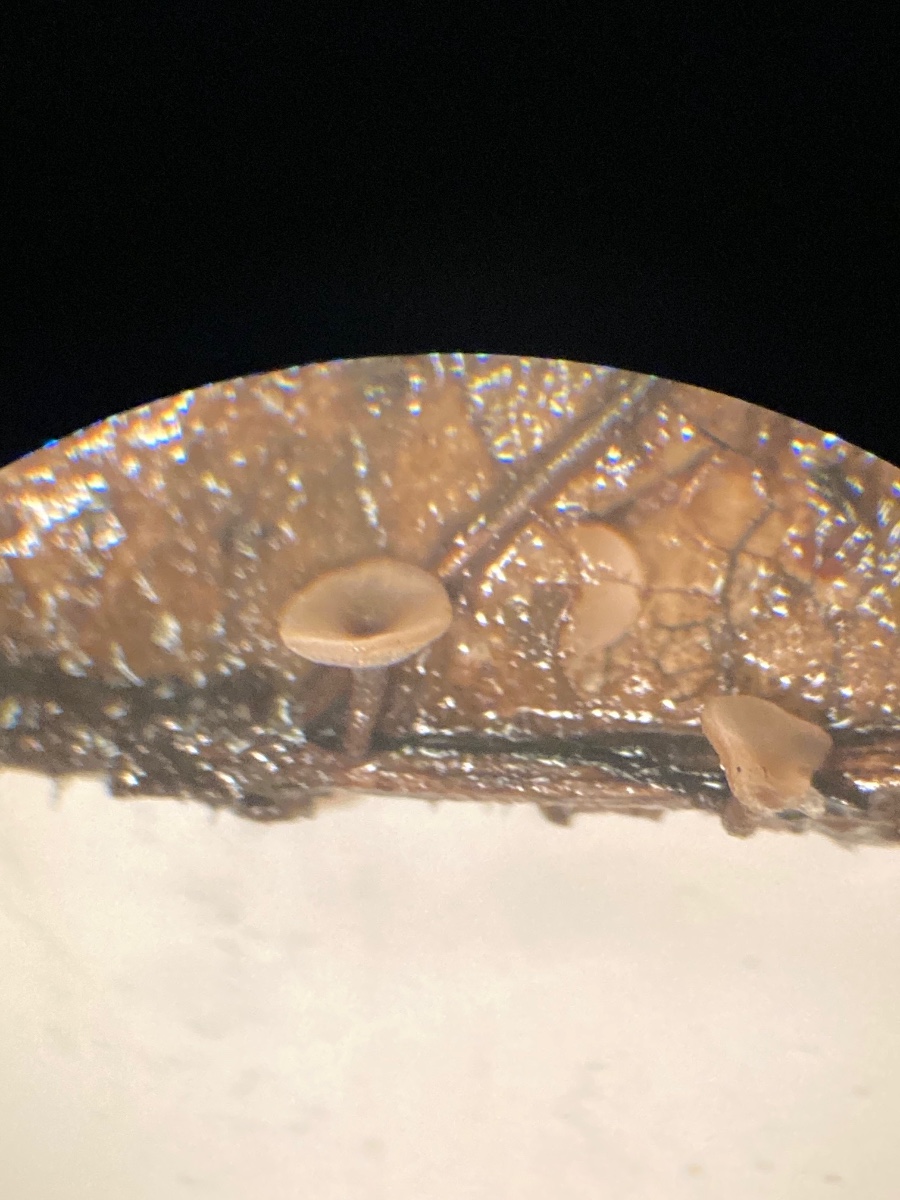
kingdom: Fungi
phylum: Ascomycota
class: Leotiomycetes
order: Helotiales
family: Rutstroemiaceae
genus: Rutstroemia
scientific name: Rutstroemia conformata
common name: elleblads-brunskive
